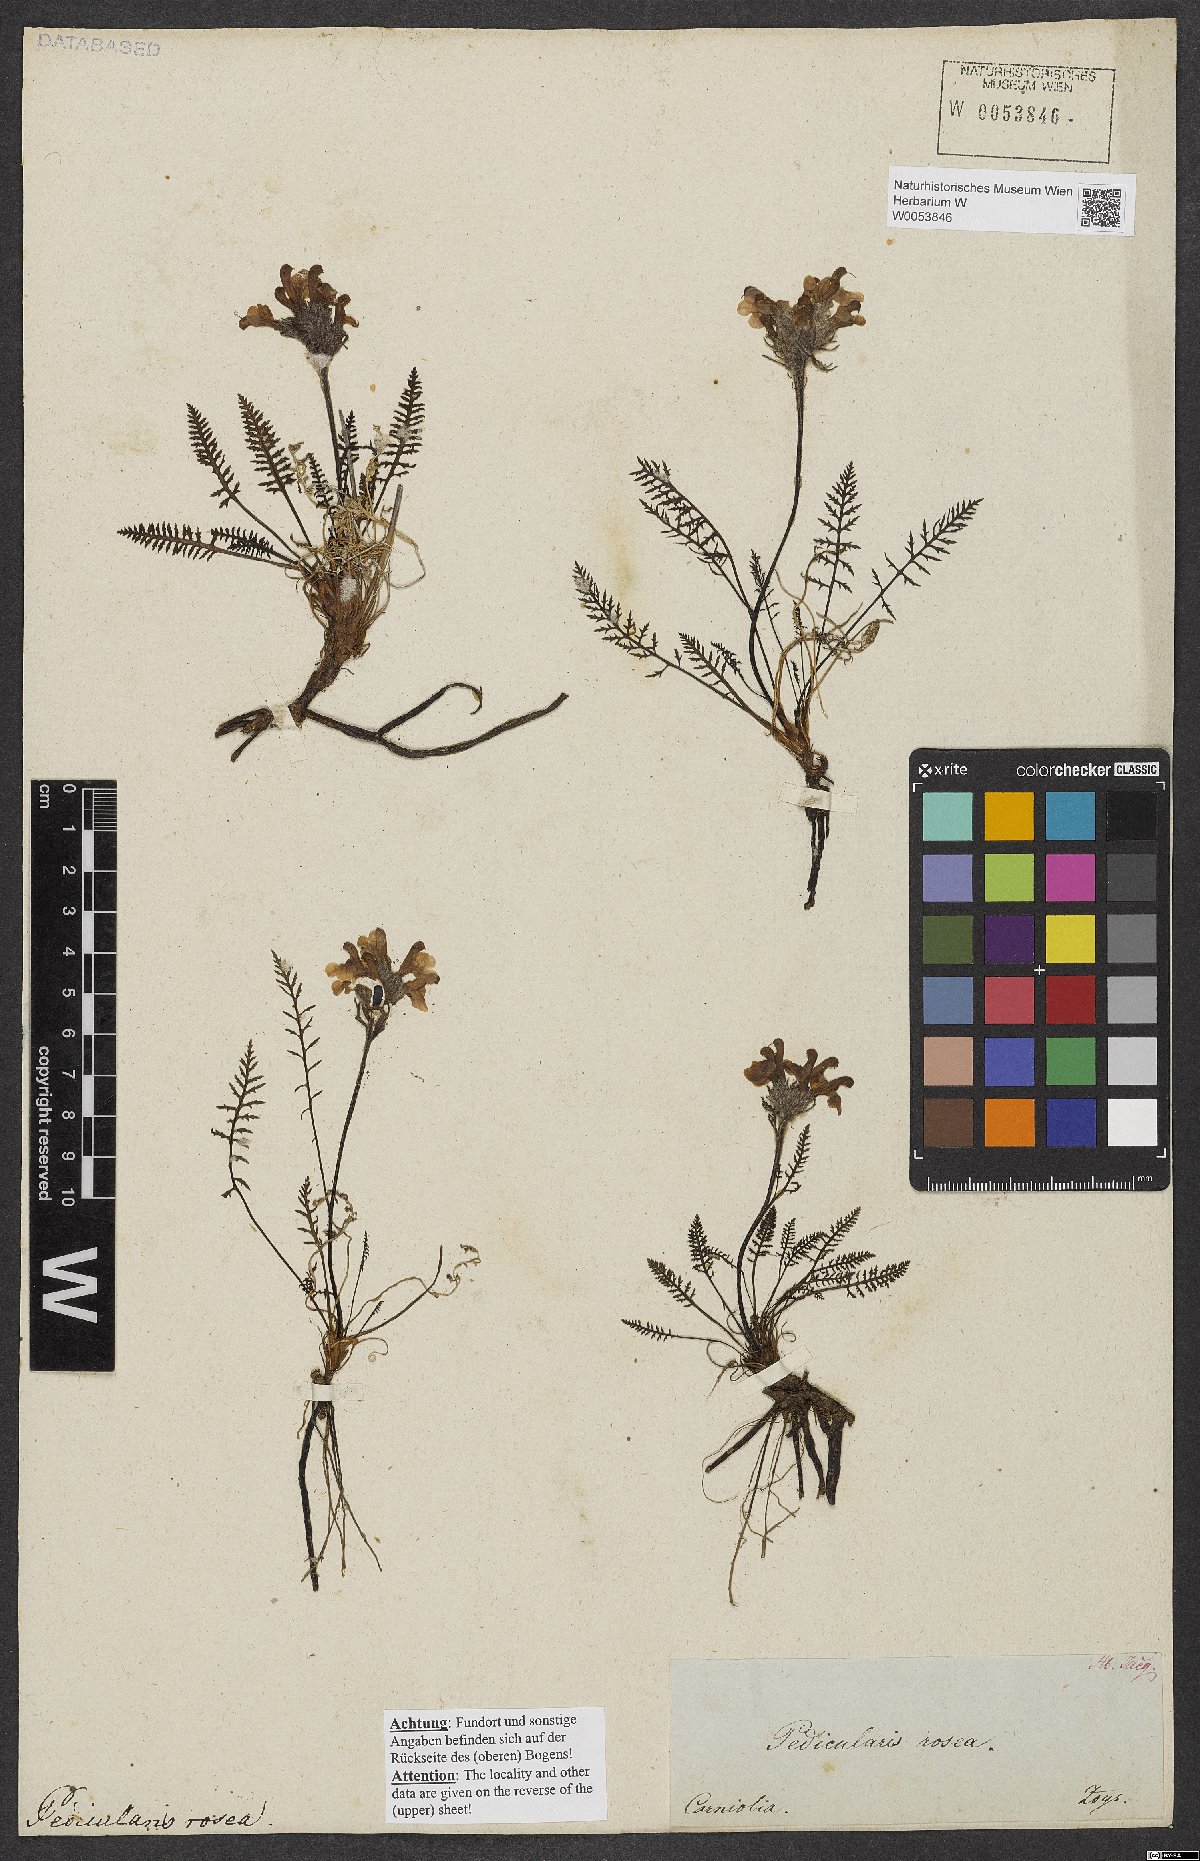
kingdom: Plantae
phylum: Tracheophyta
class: Magnoliopsida
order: Lamiales
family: Orobanchaceae
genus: Pedicularis
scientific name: Pedicularis rosea
